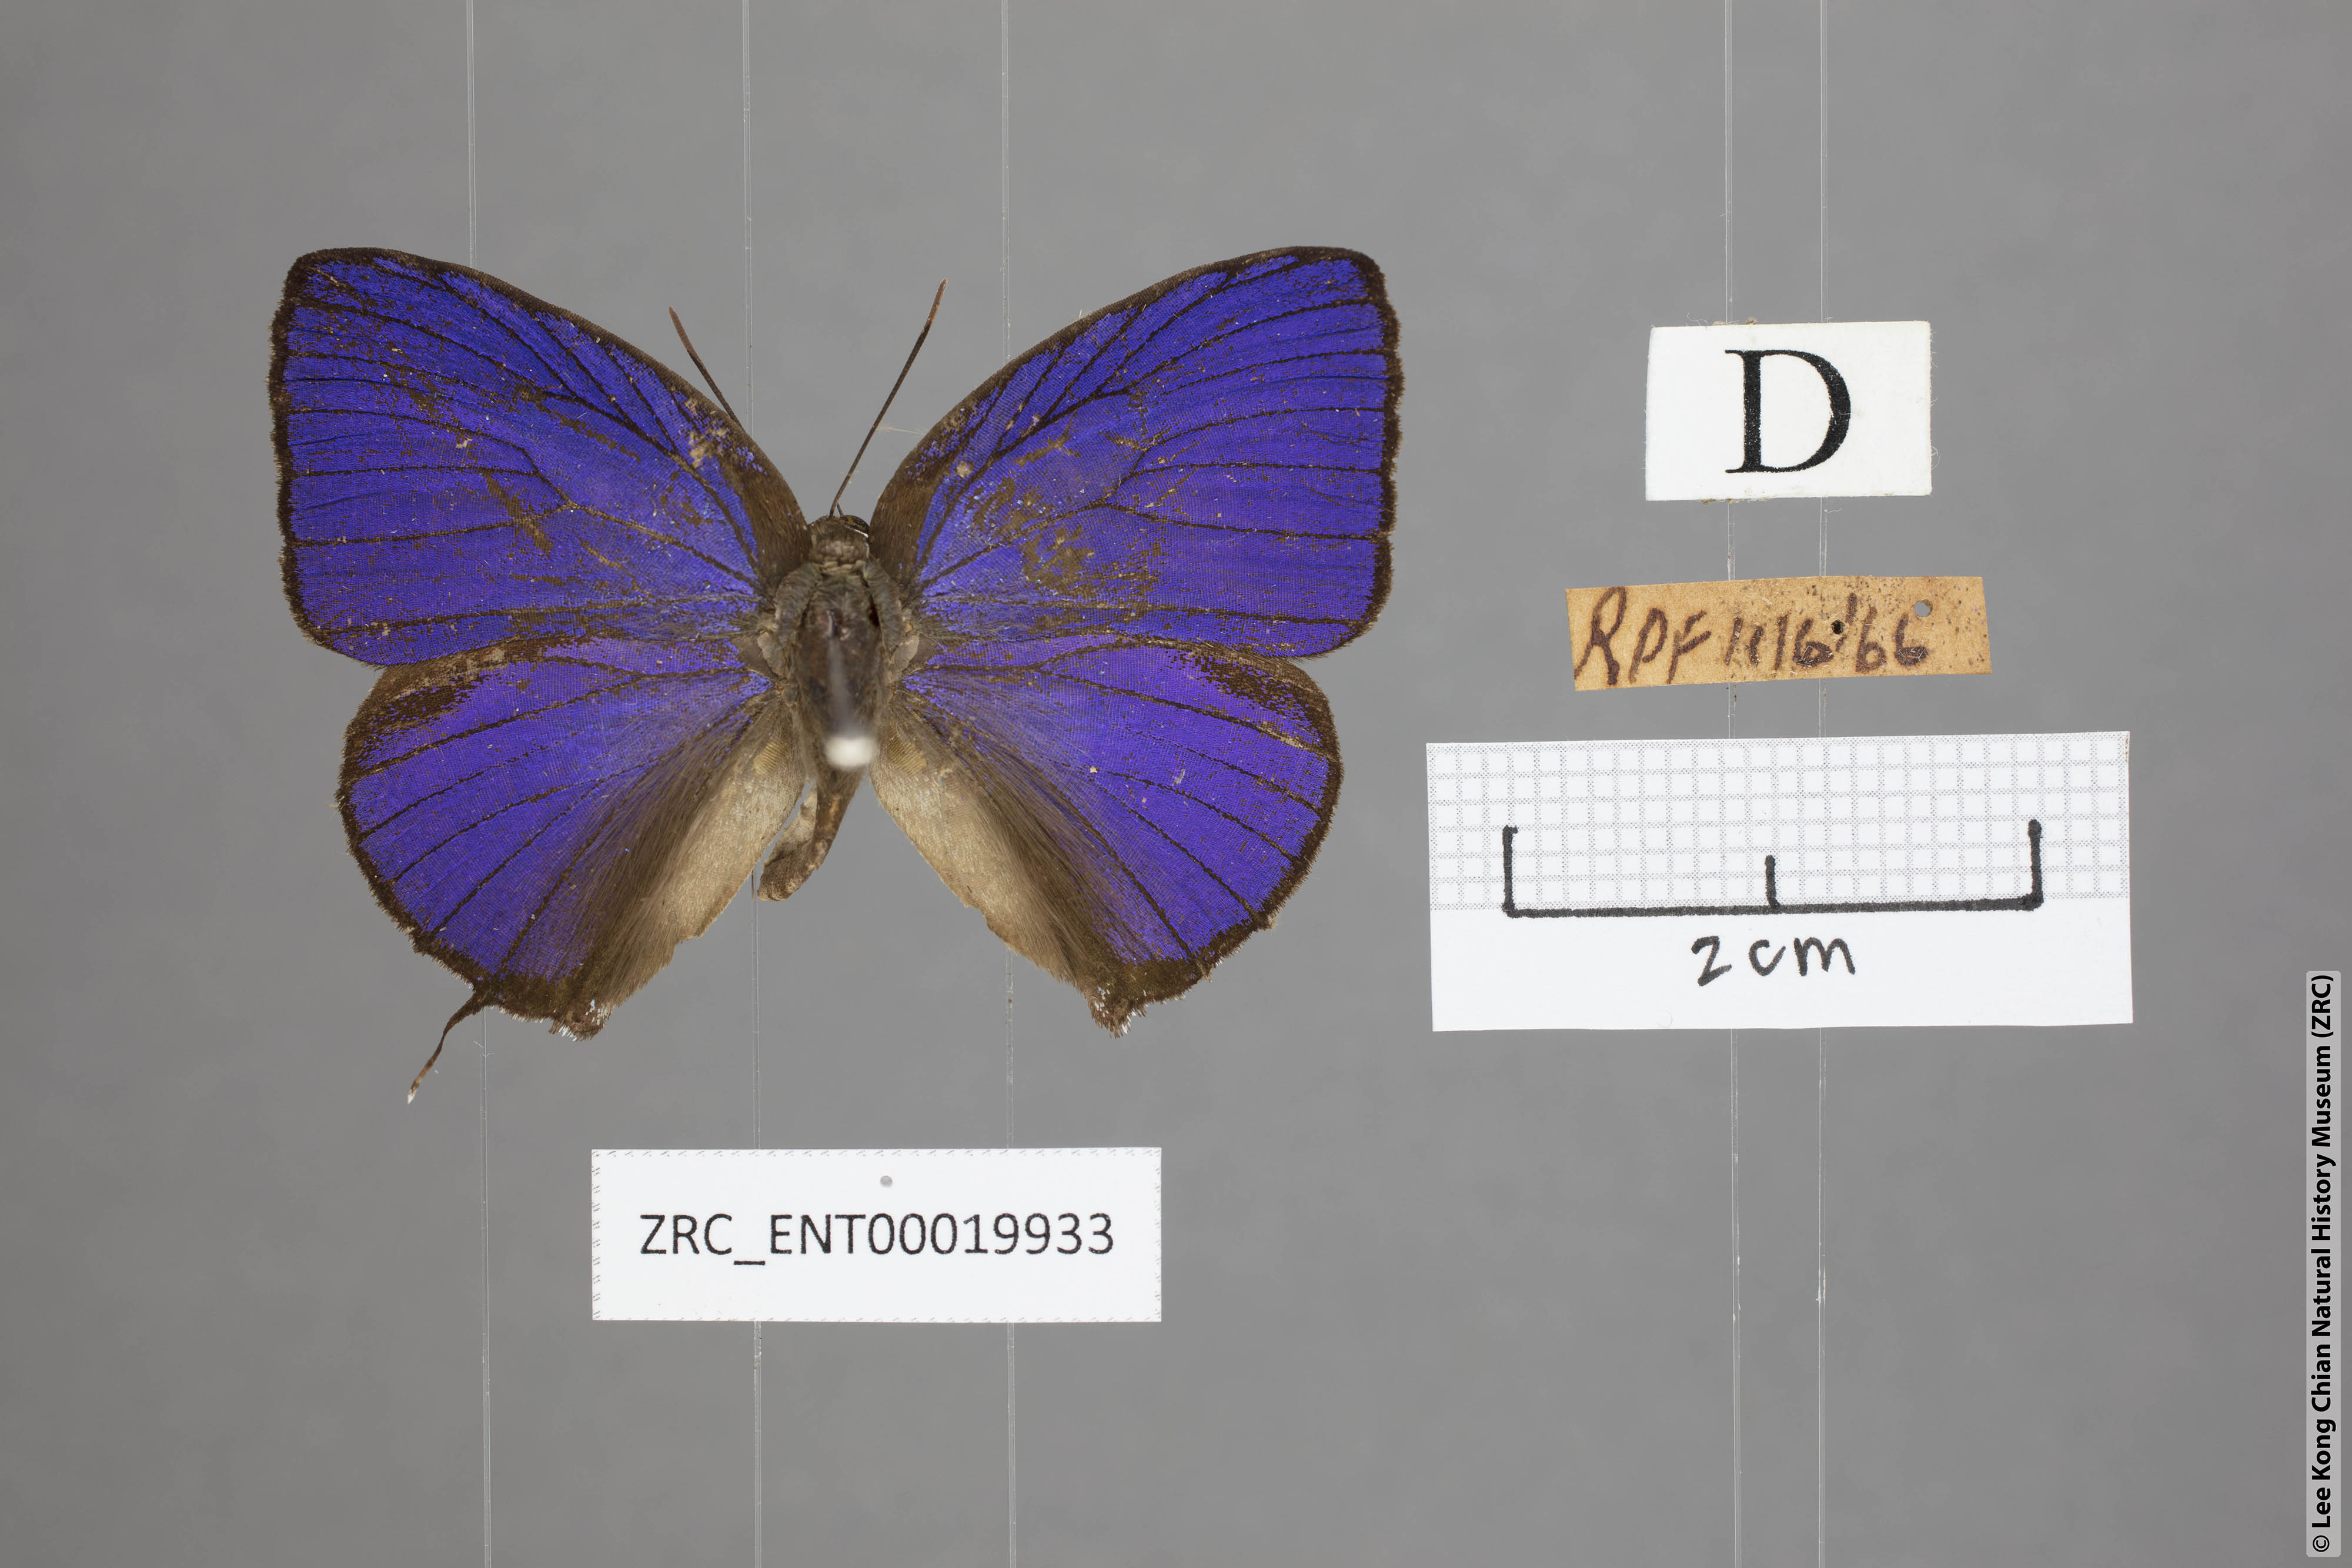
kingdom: Animalia
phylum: Arthropoda
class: Insecta
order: Lepidoptera
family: Lycaenidae
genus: Arhopala
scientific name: Arhopala zambra
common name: Zambra oakblue
